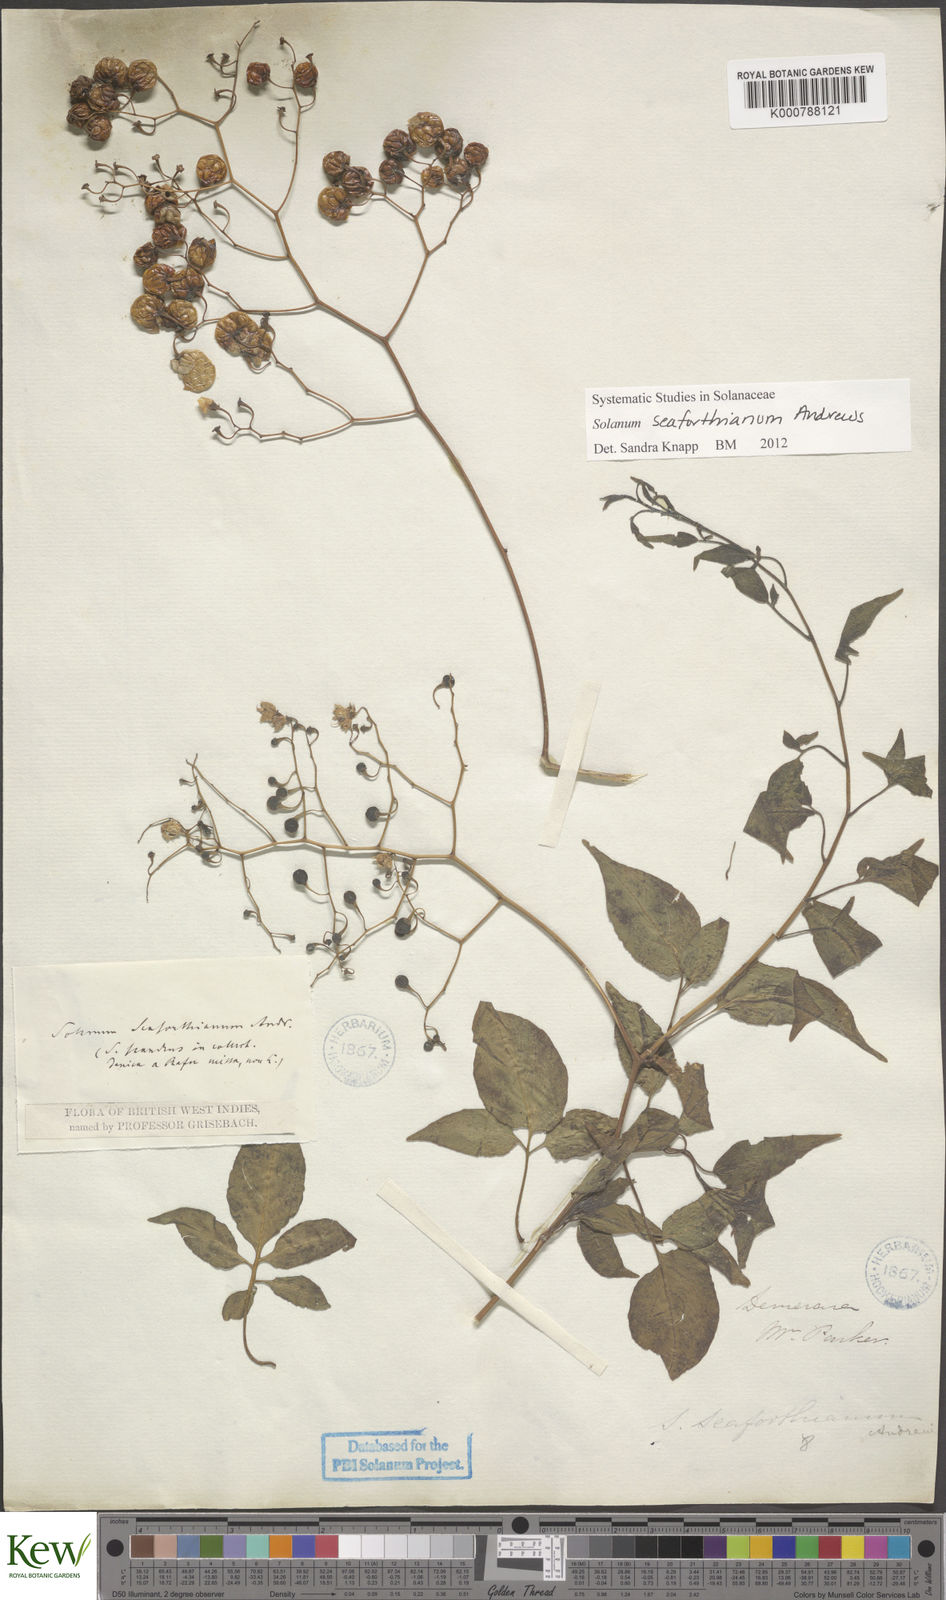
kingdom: Plantae
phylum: Tracheophyta
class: Magnoliopsida
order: Solanales
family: Solanaceae
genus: Solanum
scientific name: Solanum seaforthianum
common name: Brazilian nightshade
